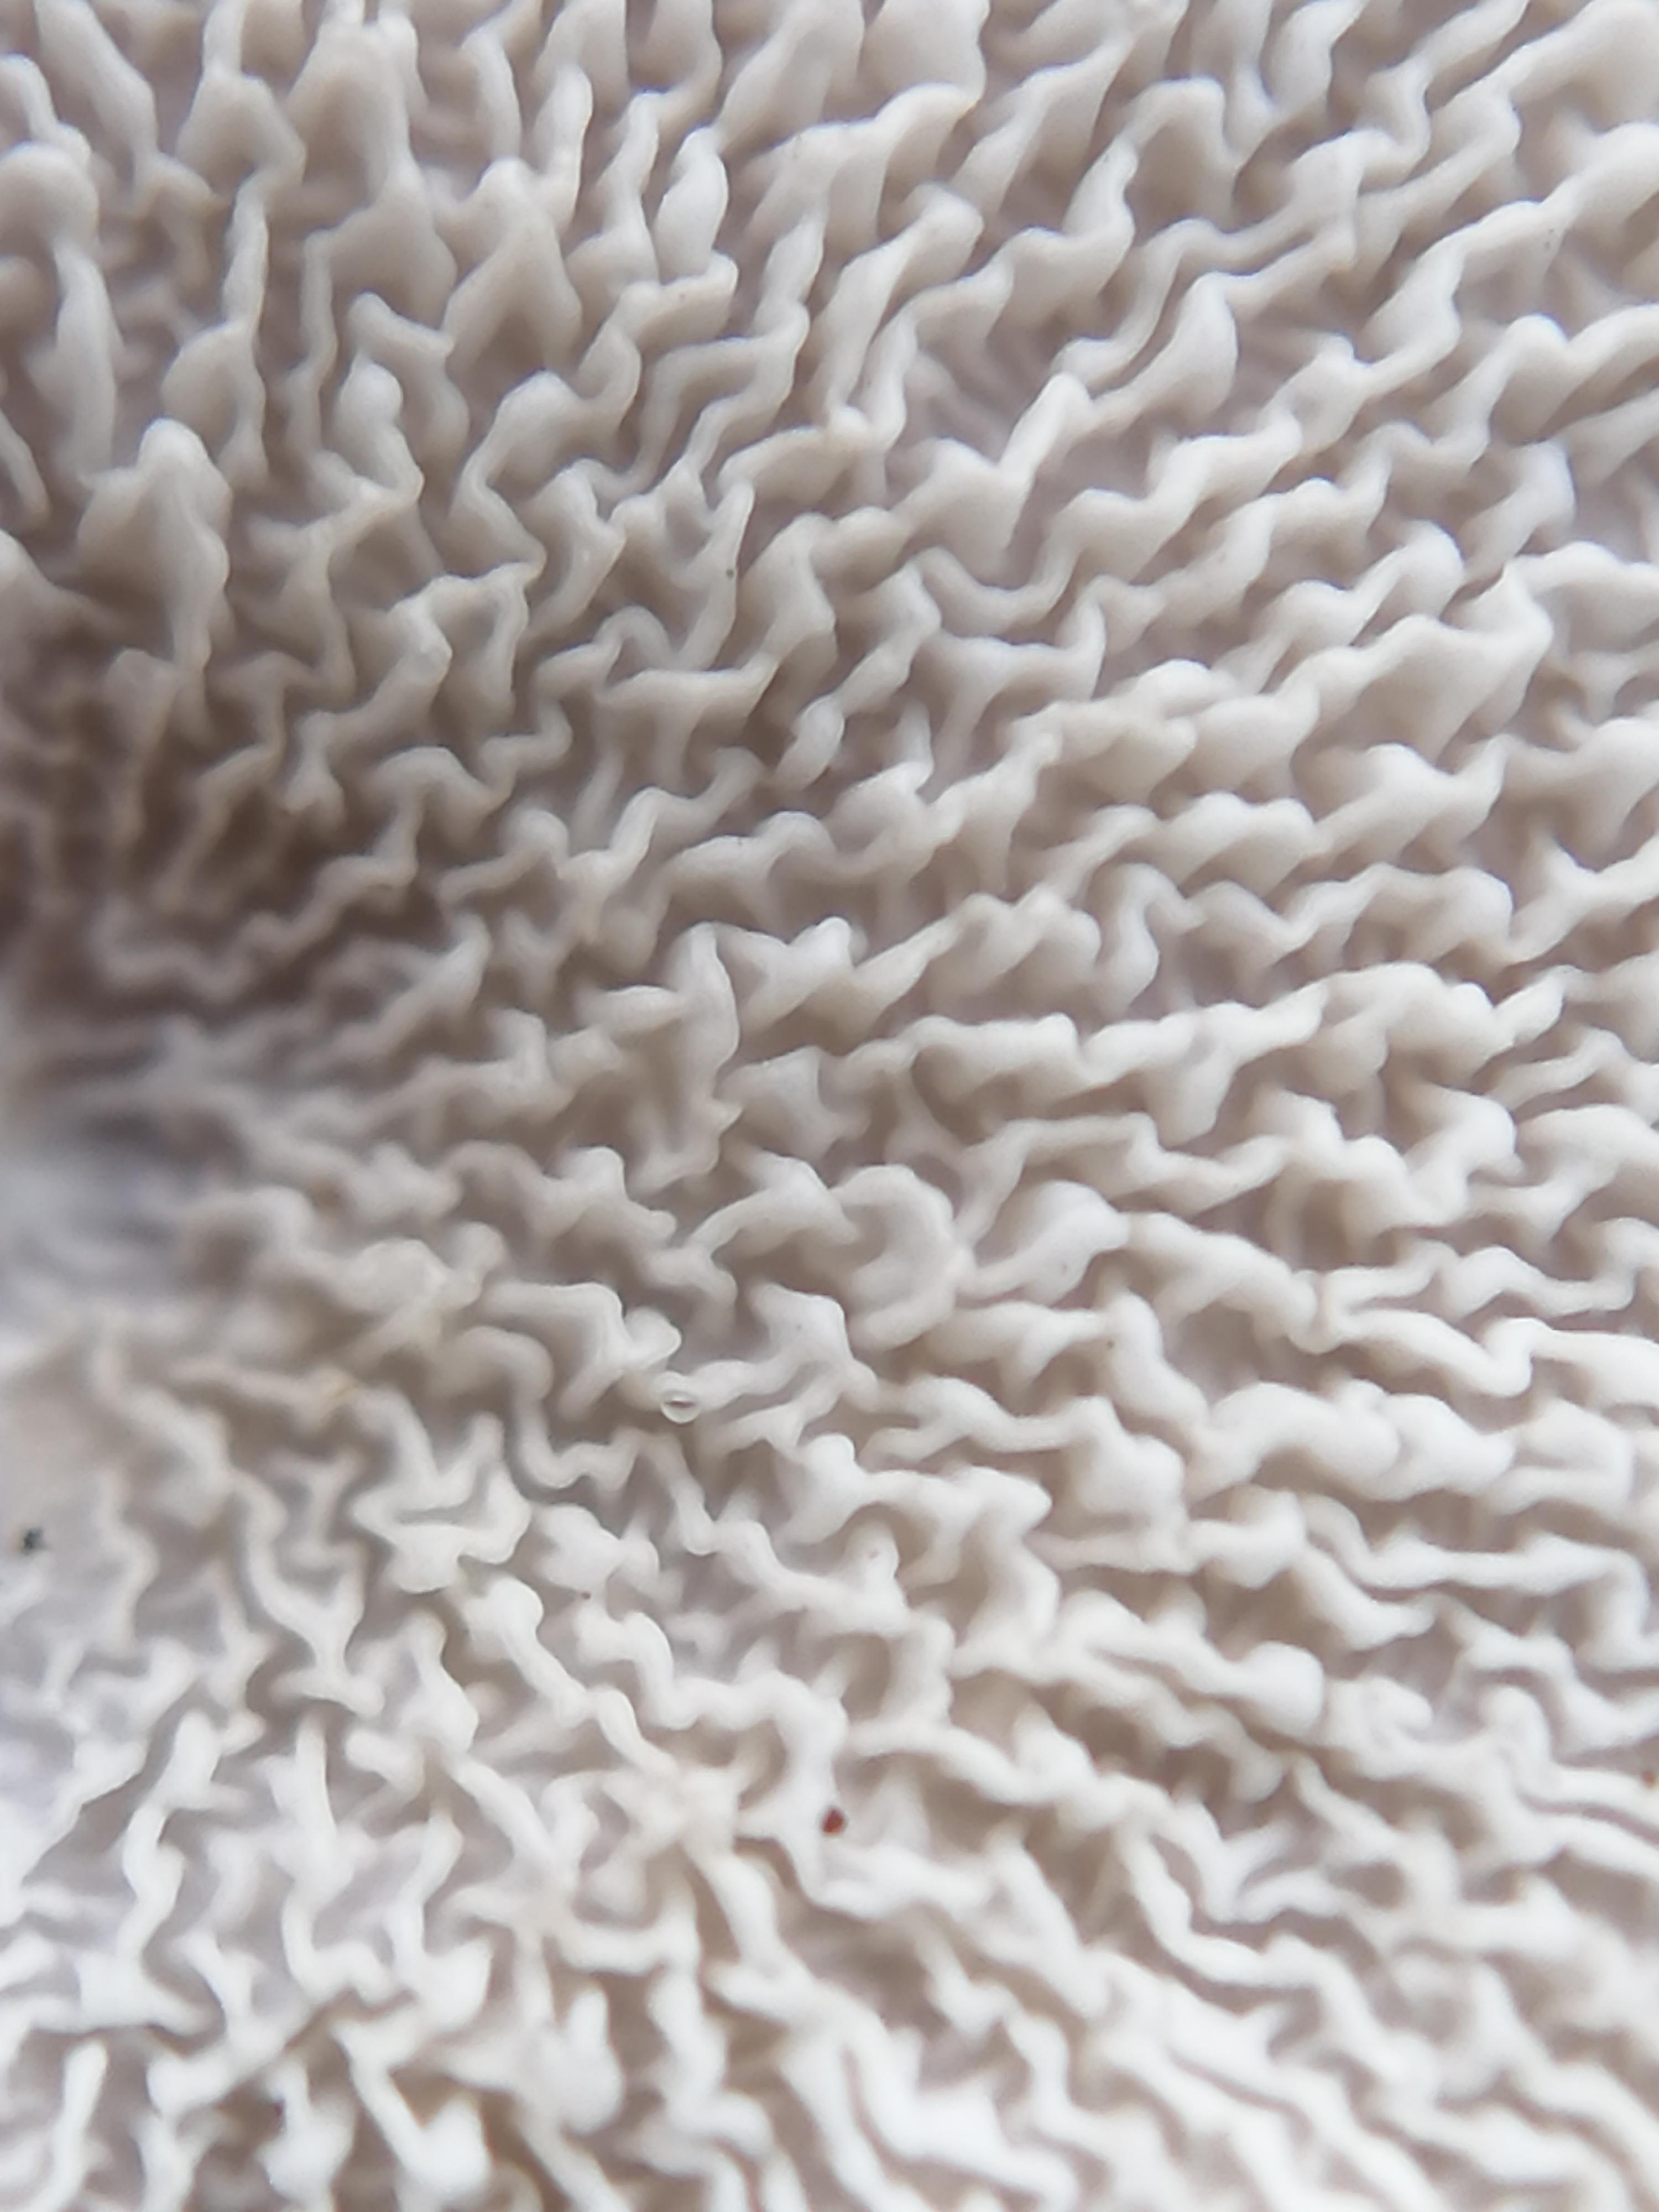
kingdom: Fungi
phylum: Basidiomycota
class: Agaricomycetes
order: Amylocorticiales
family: Amylocorticiaceae
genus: Plicaturopsis
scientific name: Plicaturopsis crispa
